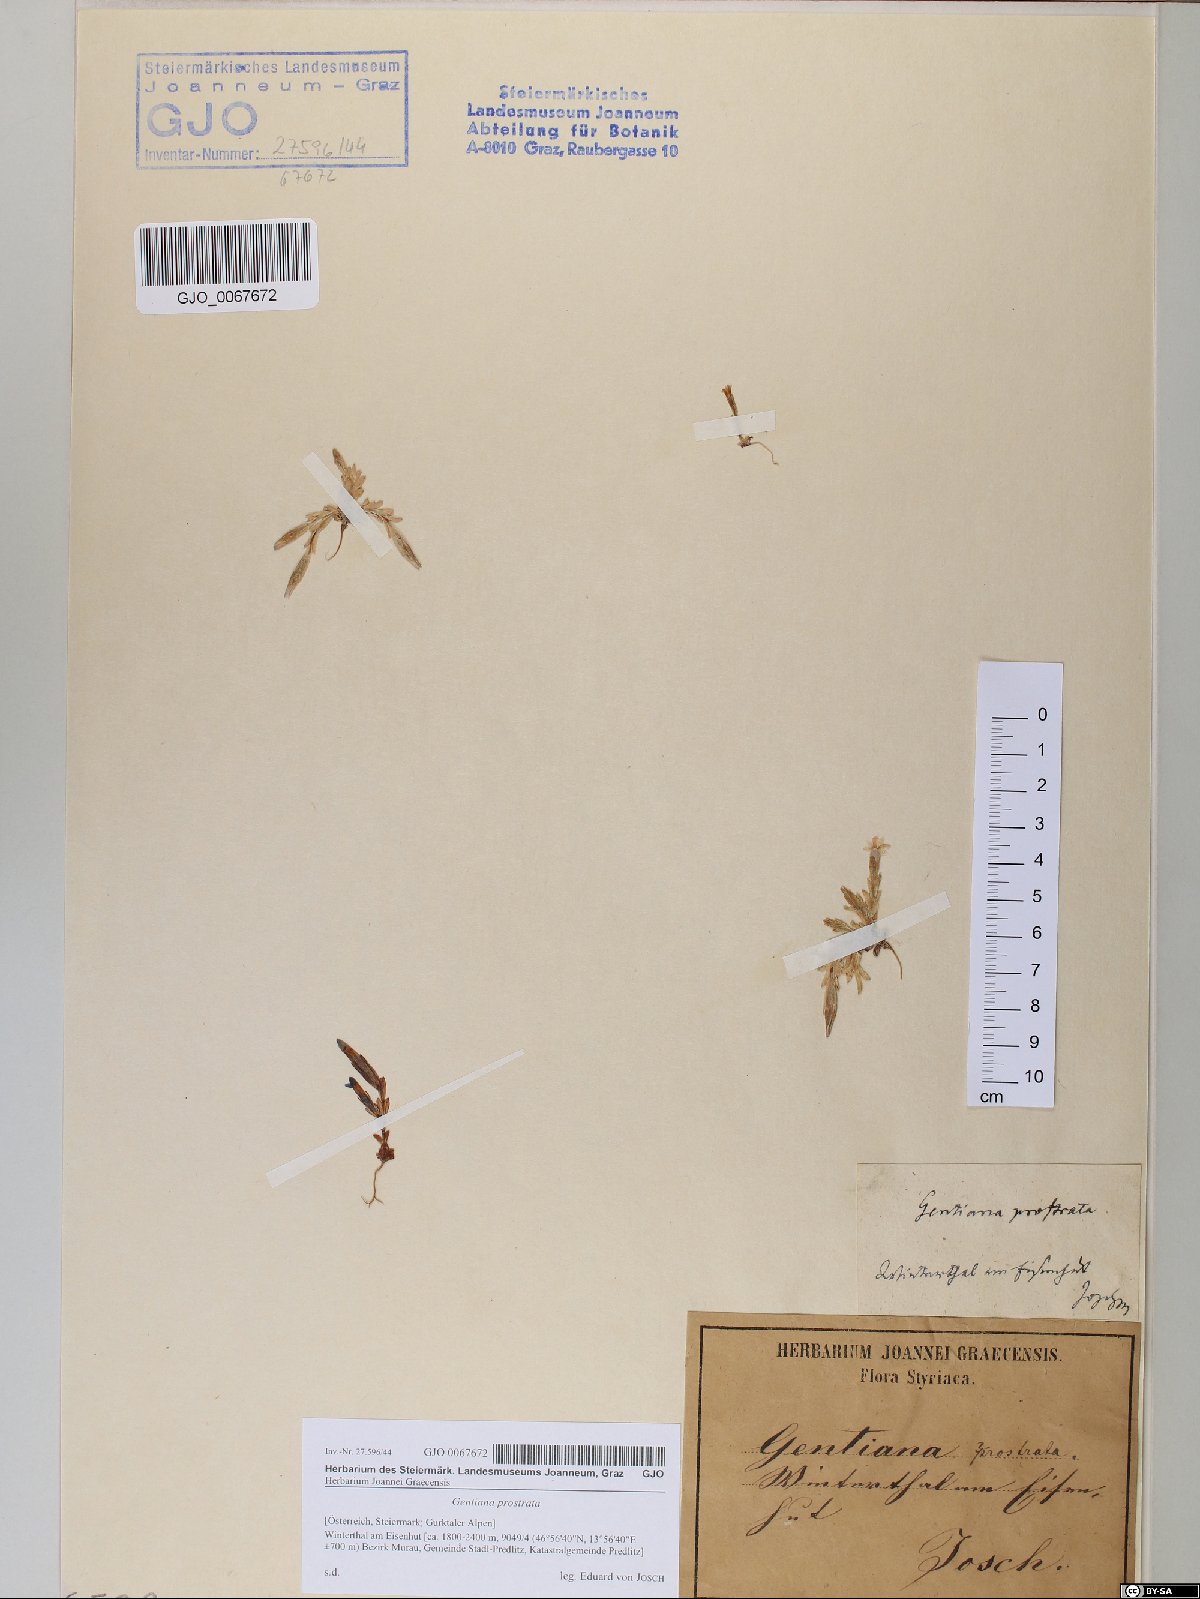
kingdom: Plantae
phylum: Tracheophyta
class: Magnoliopsida
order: Gentianales
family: Gentianaceae
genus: Gentiana
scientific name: Gentiana prostrata
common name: Moss gentian
